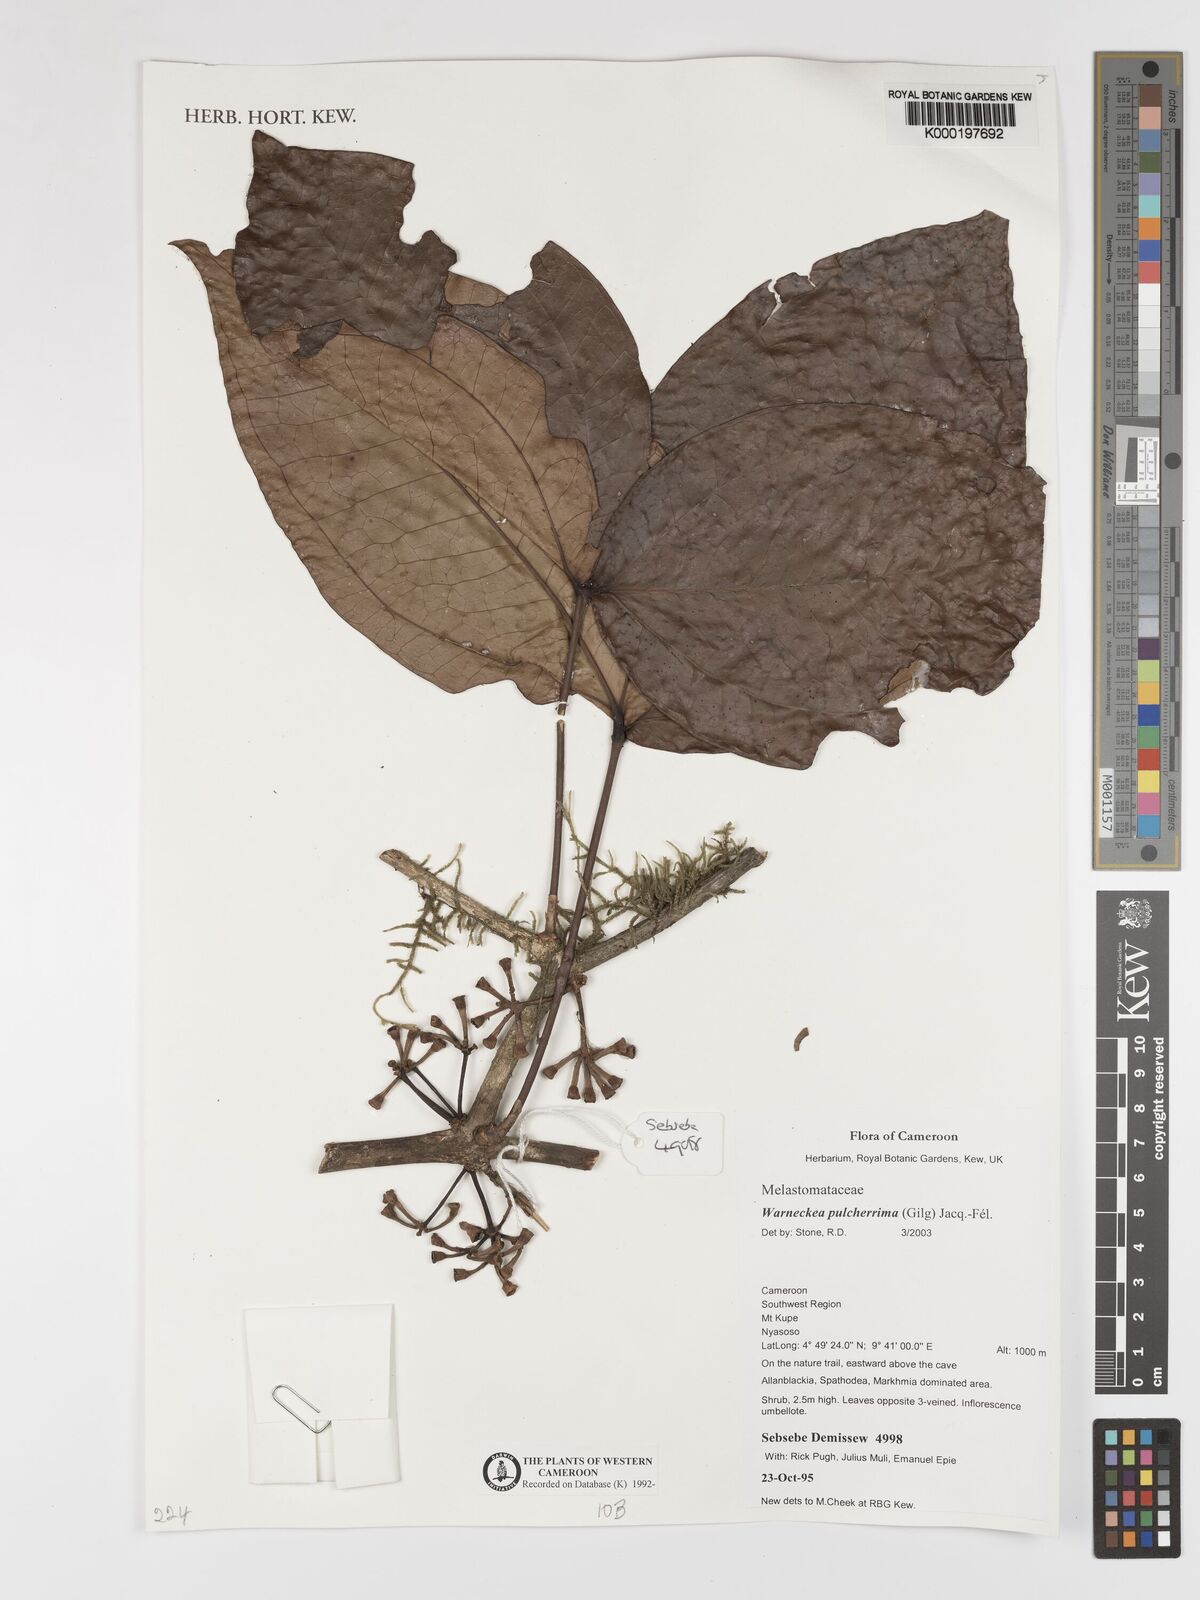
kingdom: Plantae
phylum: Tracheophyta
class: Magnoliopsida
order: Myrtales
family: Melastomataceae
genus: Warneckea
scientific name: Warneckea
